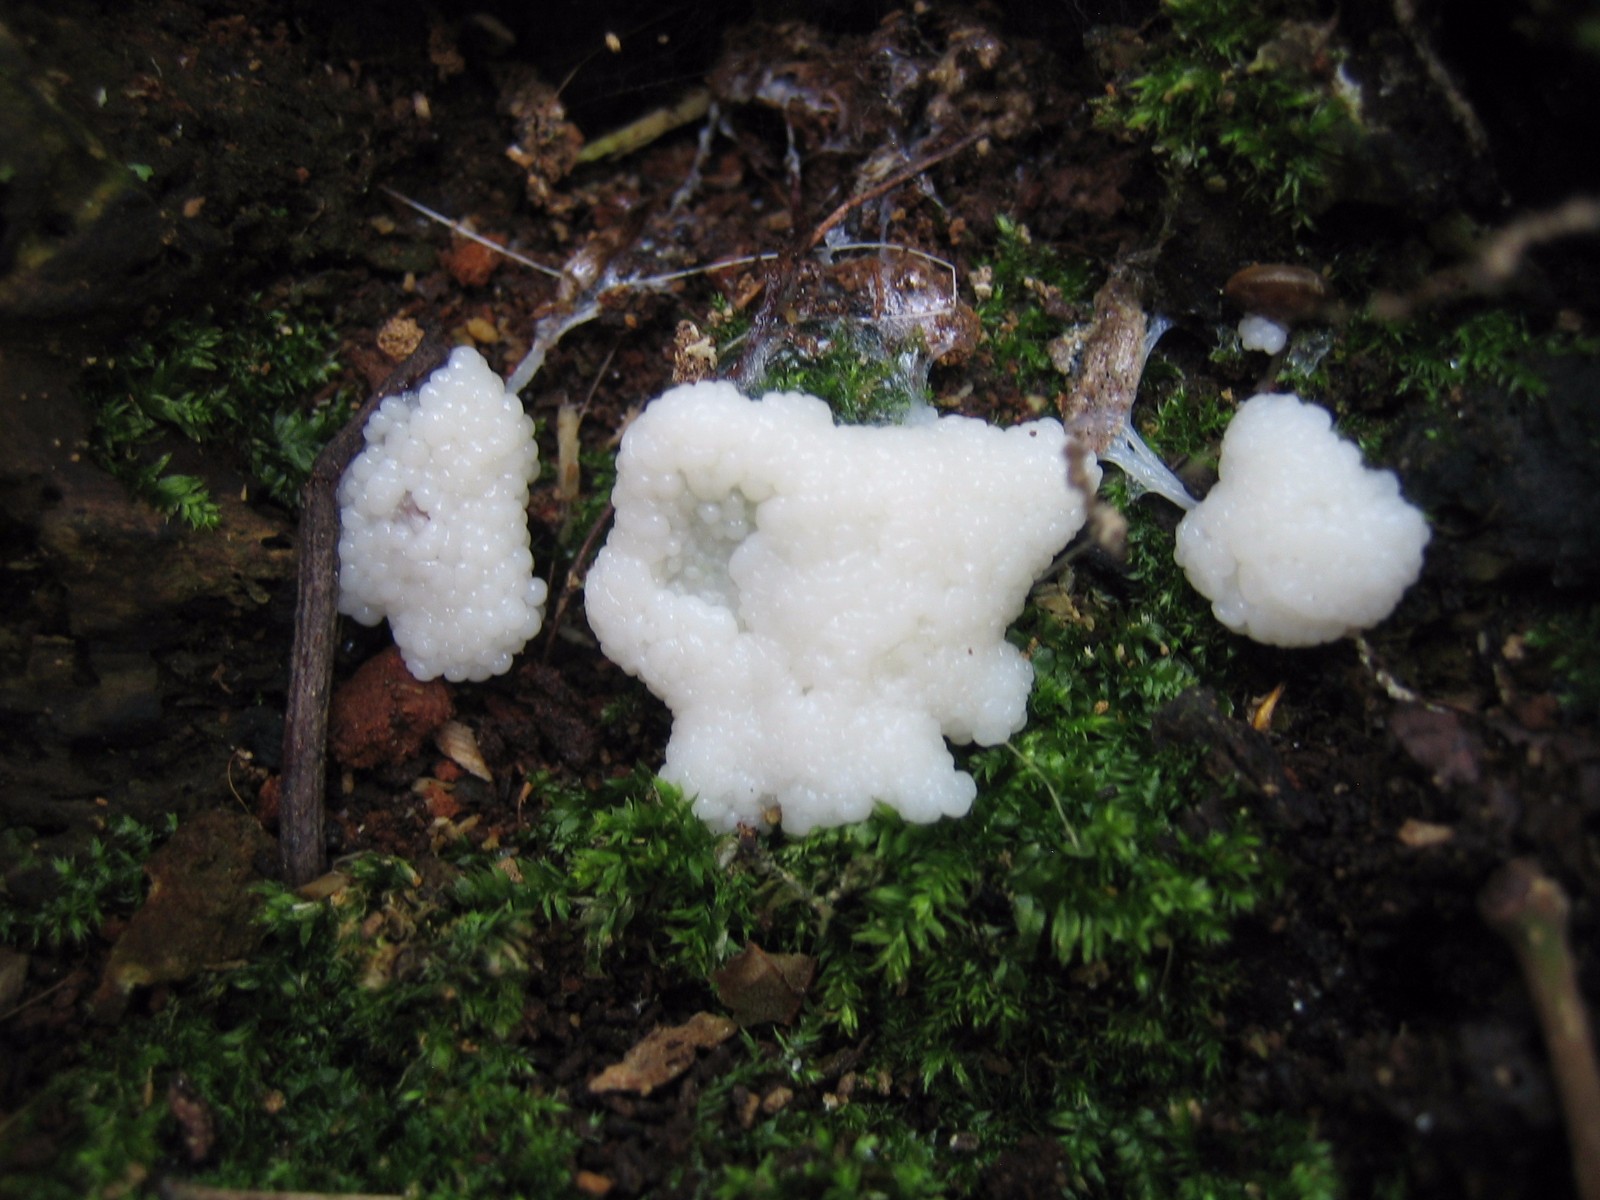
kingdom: Protozoa
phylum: Mycetozoa
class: Protosteliomycetes
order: Ceratiomyxales
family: Ceratiomyxaceae
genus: Ceratiomyxa
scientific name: Ceratiomyxa fruticulosa
